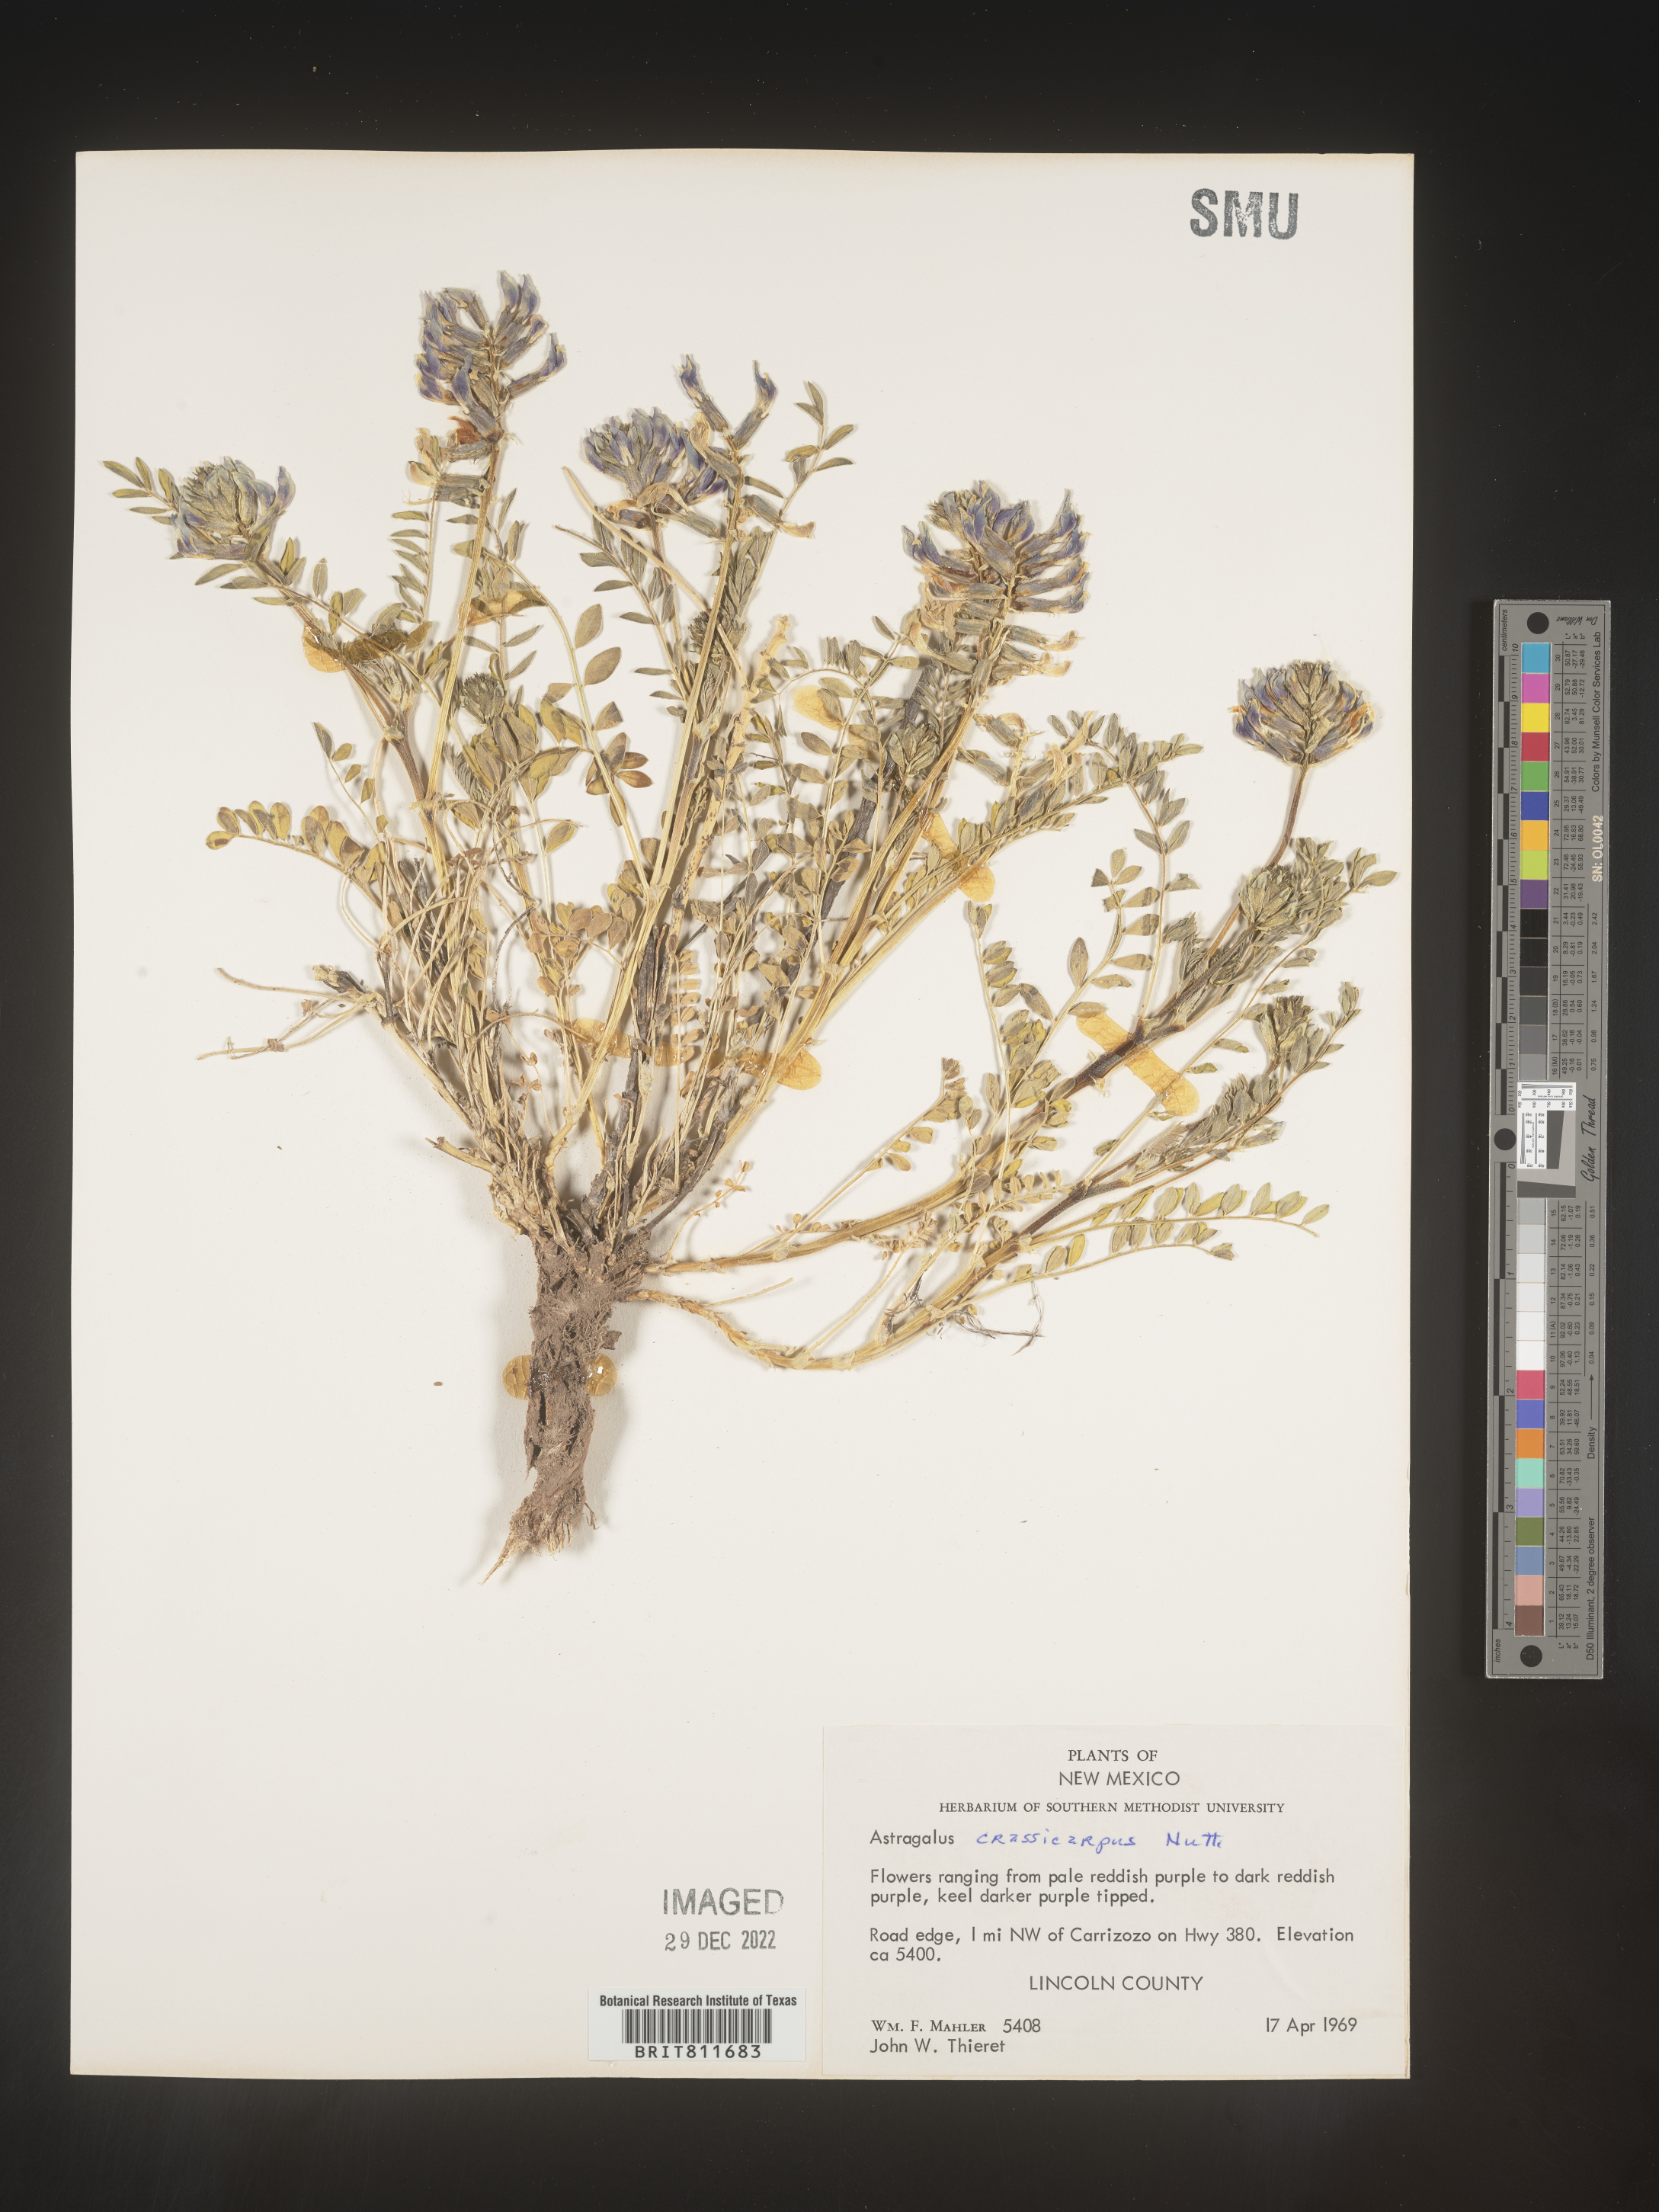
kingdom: Plantae
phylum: Tracheophyta
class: Magnoliopsida
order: Fabales
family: Fabaceae
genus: Astragalus
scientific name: Astragalus crassicarpus
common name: Ground-plum milk-vetch
